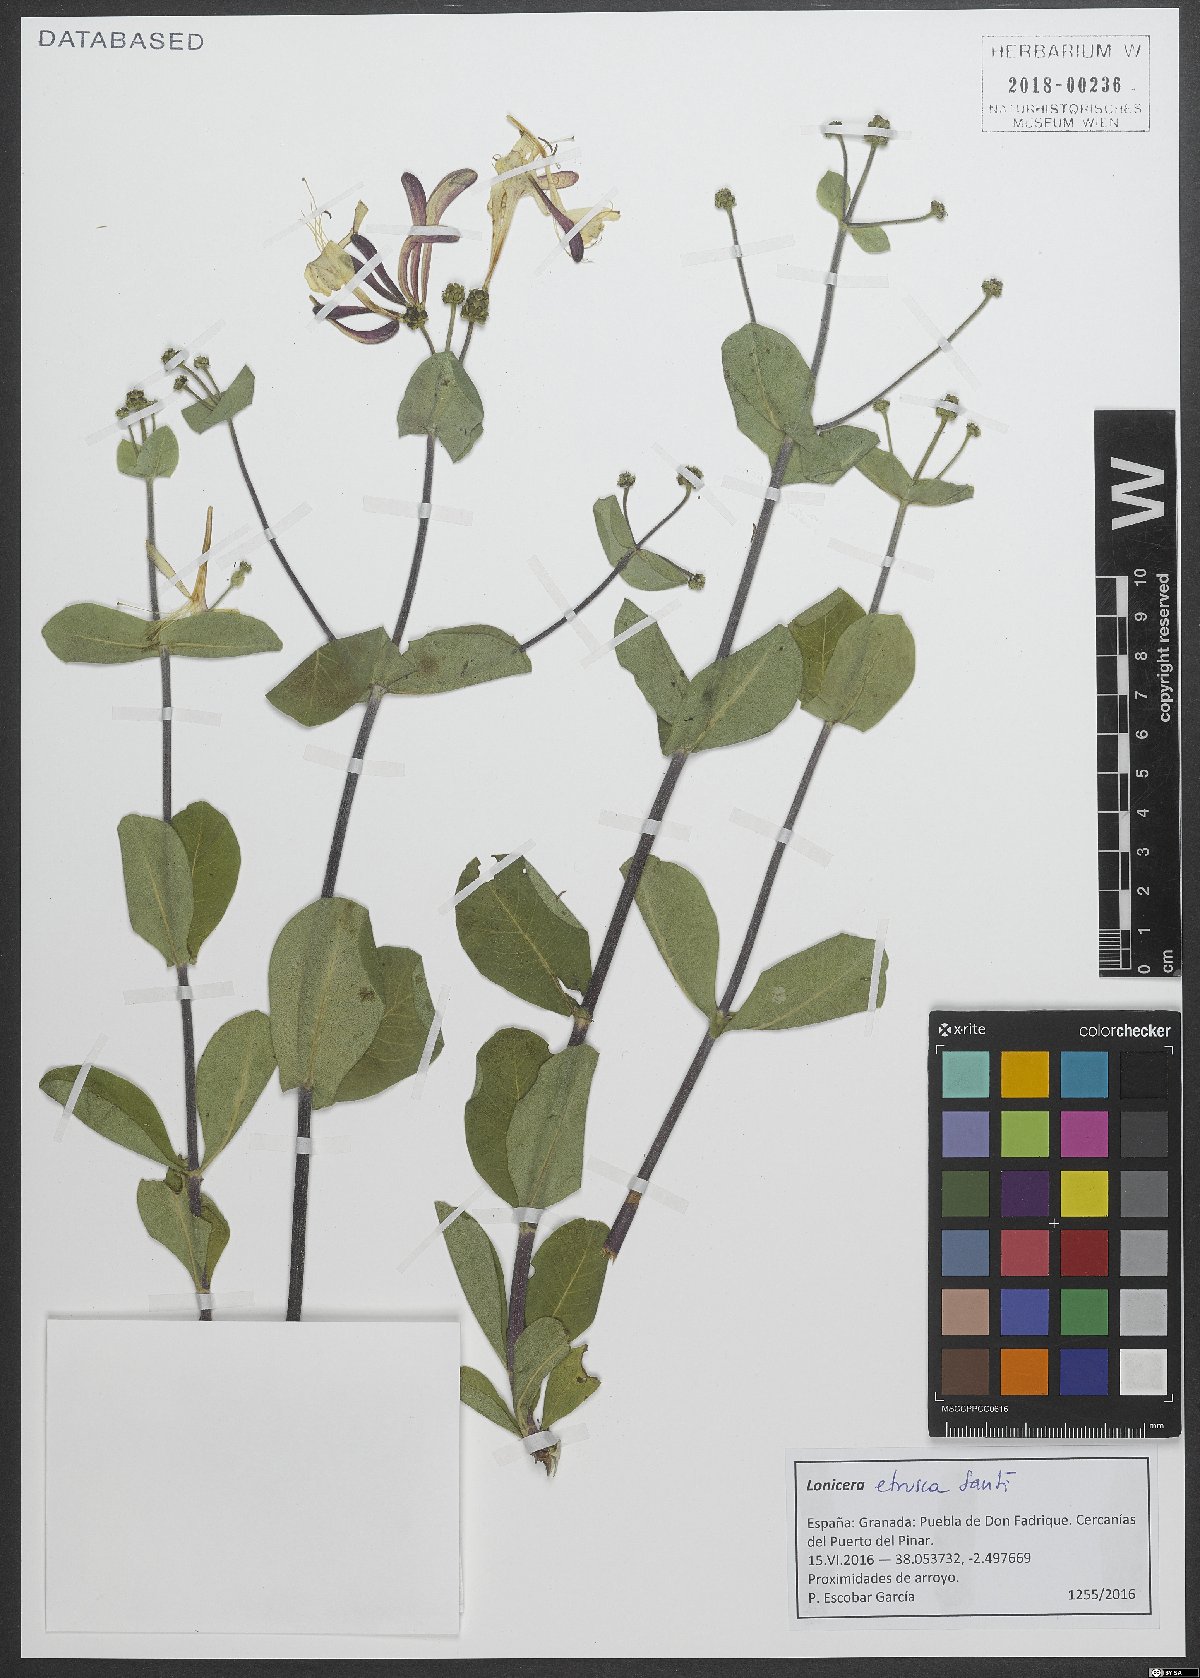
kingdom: Plantae
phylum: Tracheophyta
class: Magnoliopsida
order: Dipsacales
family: Caprifoliaceae
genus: Lonicera
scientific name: Lonicera etrusca
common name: Etruscan honeysuckle
